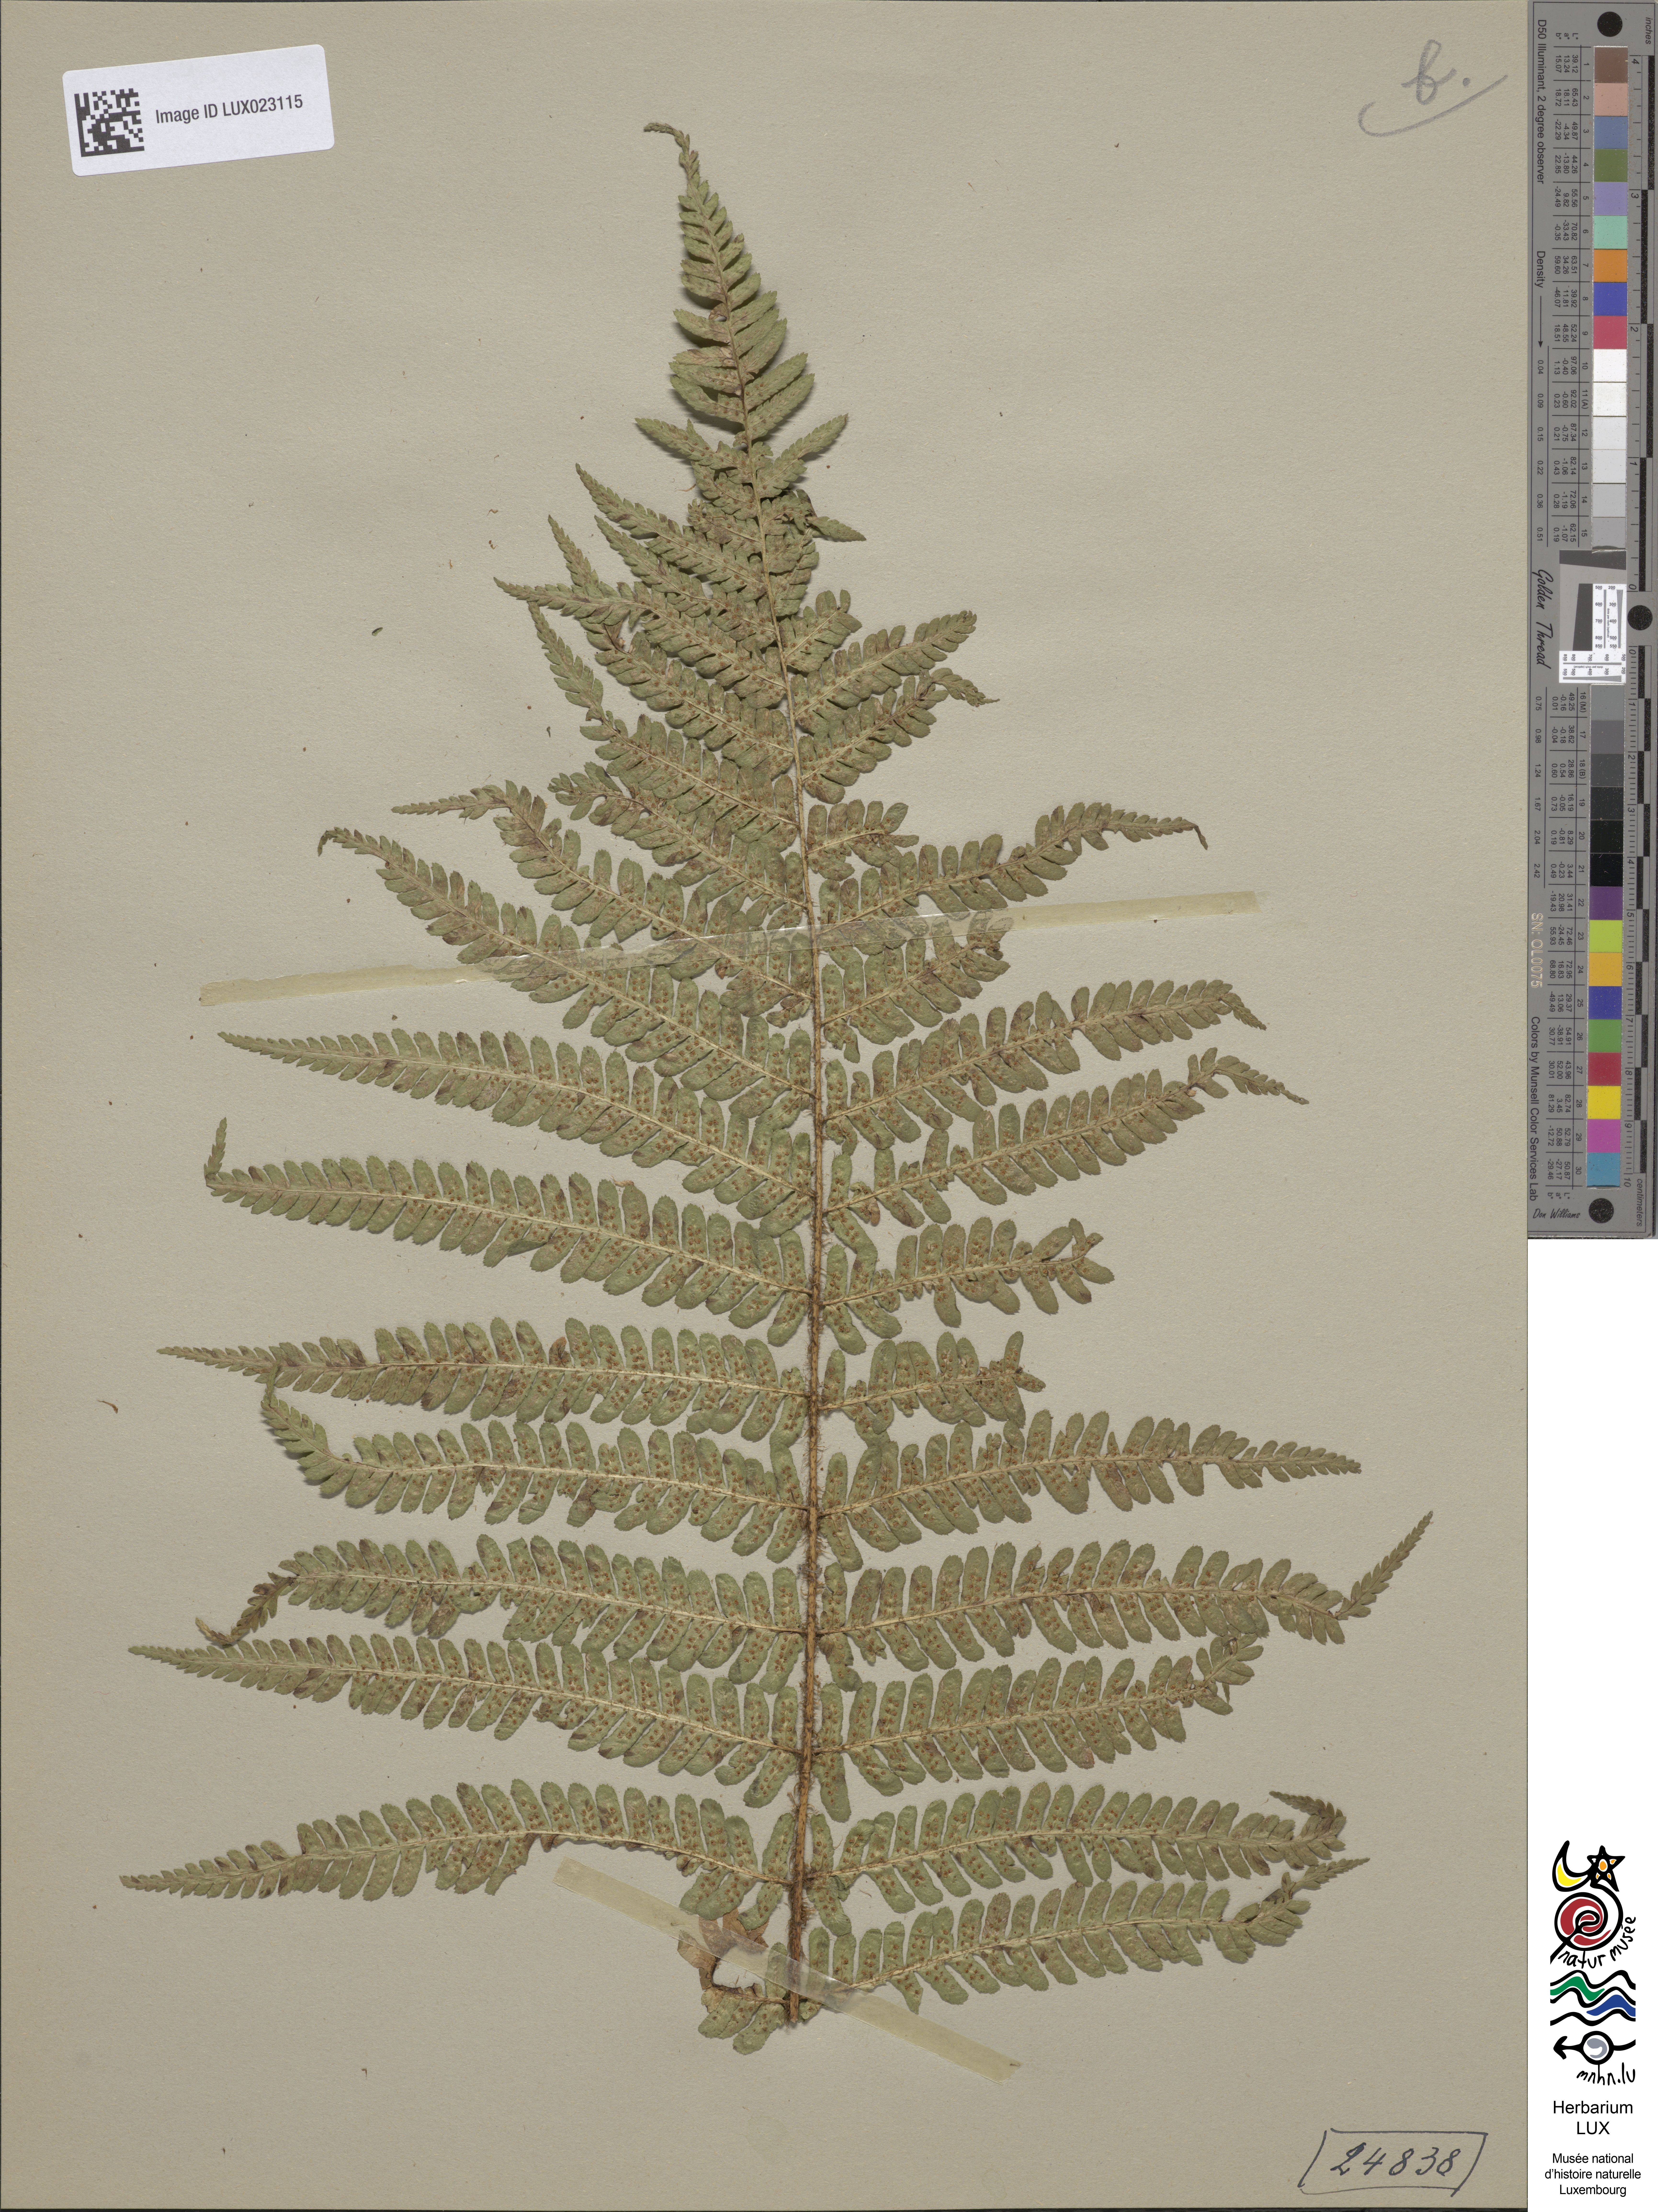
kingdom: Plantae
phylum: Tracheophyta
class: Polypodiopsida
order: Polypodiales
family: Dryopteridaceae
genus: Dryopteris
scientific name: Dryopteris borreri
